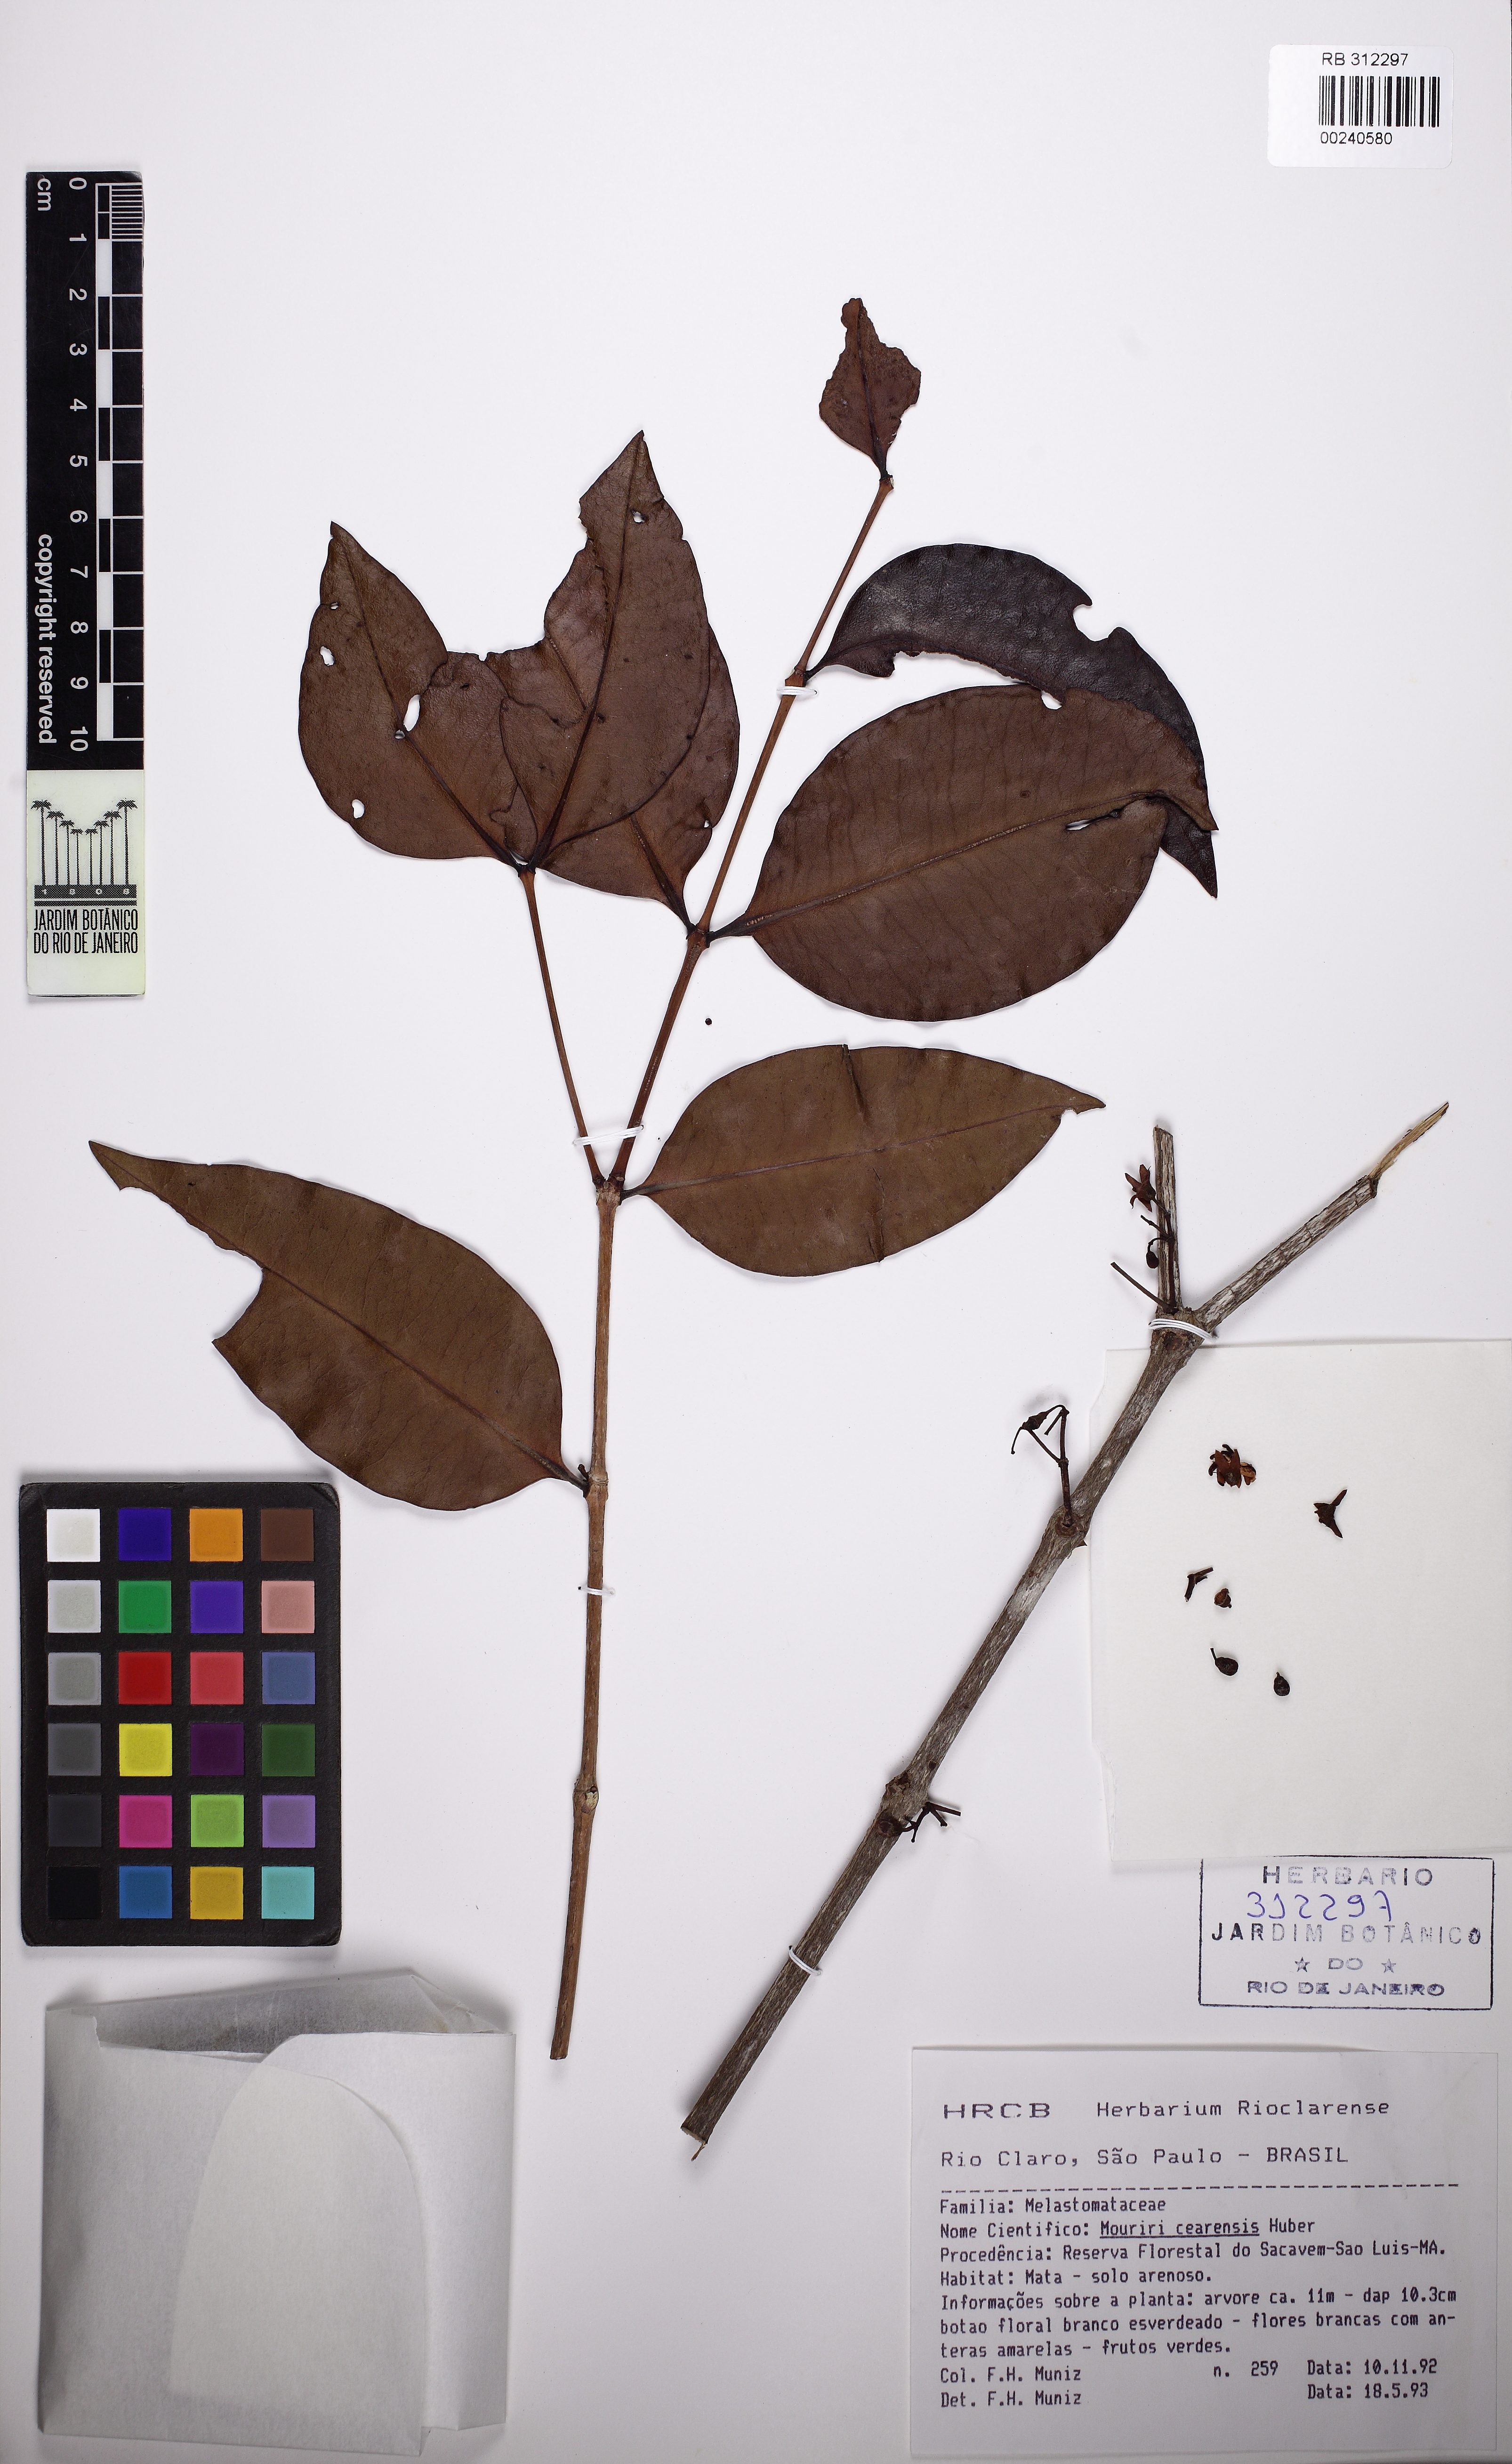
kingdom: Plantae
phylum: Tracheophyta
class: Magnoliopsida
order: Myrtales
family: Melastomataceae
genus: Mouriri
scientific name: Mouriri cearensis
